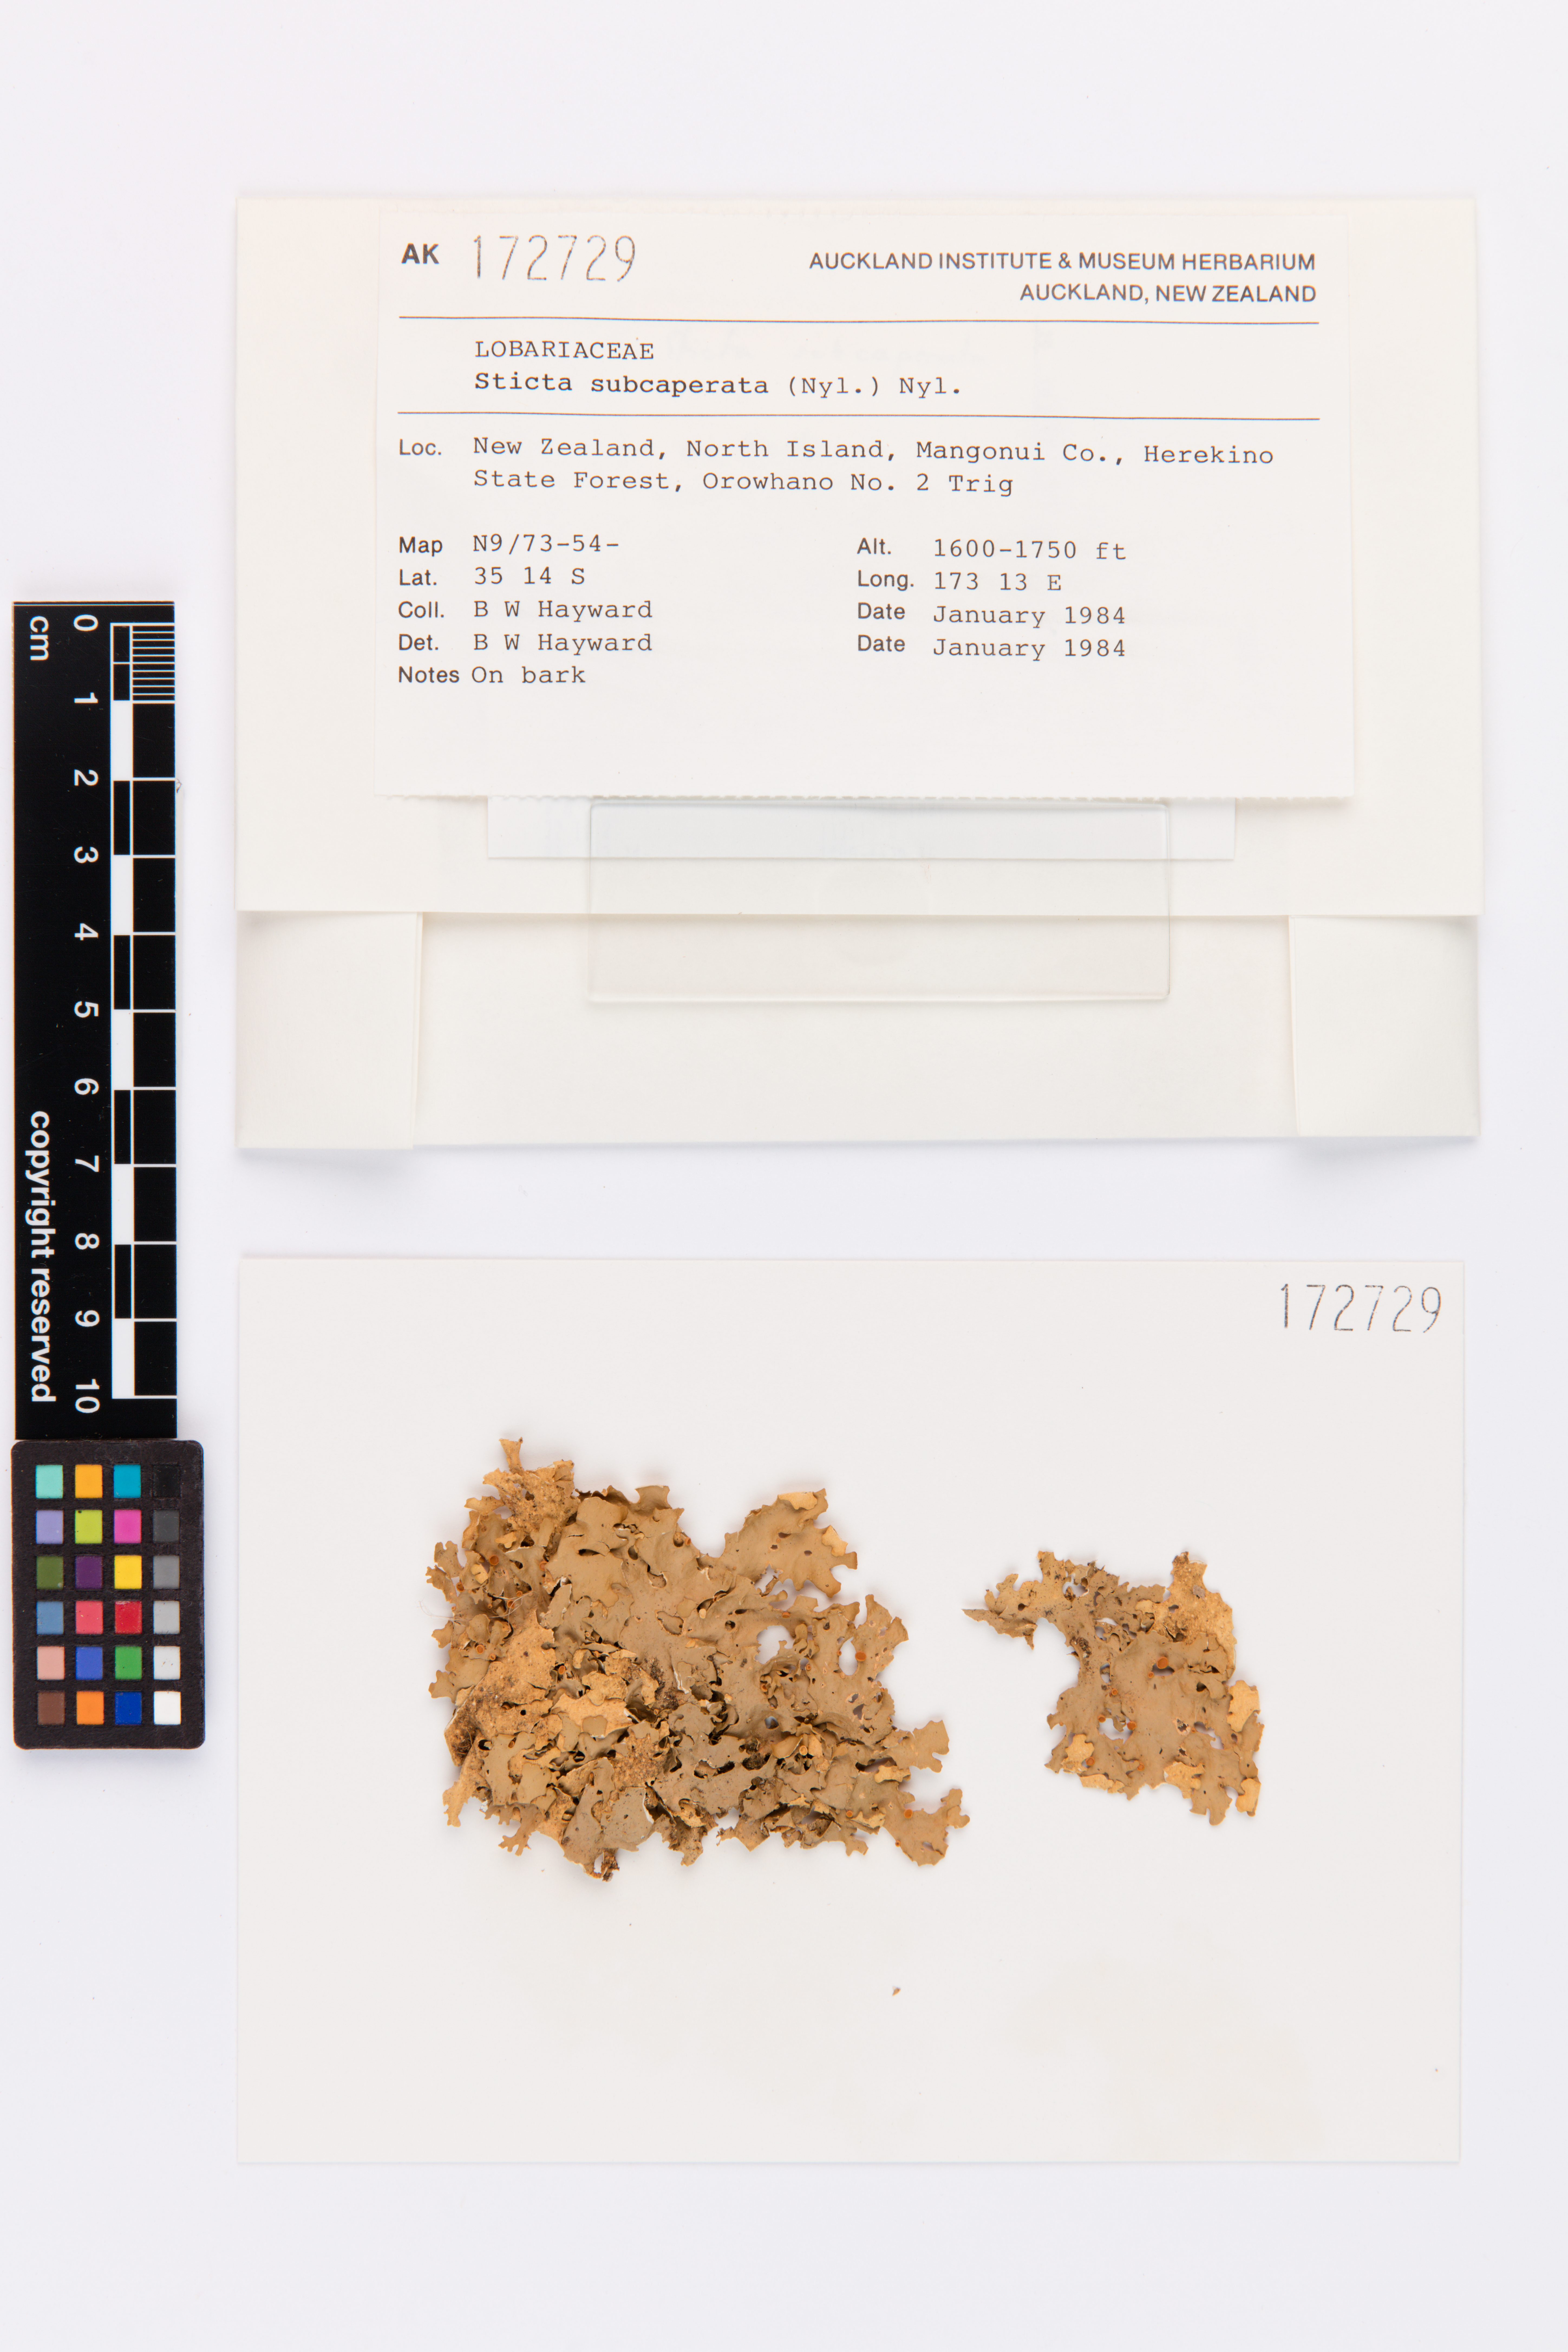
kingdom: Fungi
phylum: Ascomycota
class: Lecanoromycetes
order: Peltigerales
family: Lobariaceae
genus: Sticta
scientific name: Sticta subcaperata
